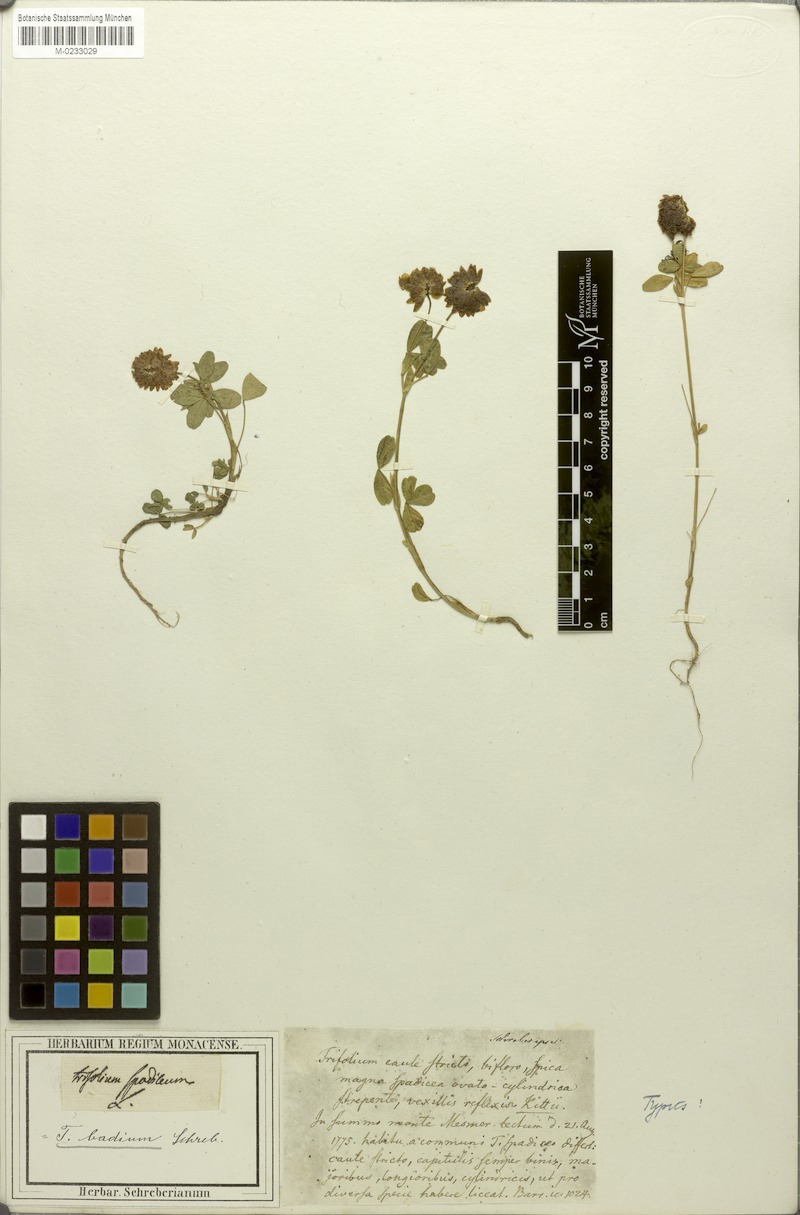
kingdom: Plantae
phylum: Tracheophyta
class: Magnoliopsida
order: Fabales
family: Fabaceae
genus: Trifolium
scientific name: Trifolium badium
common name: Brown clover
